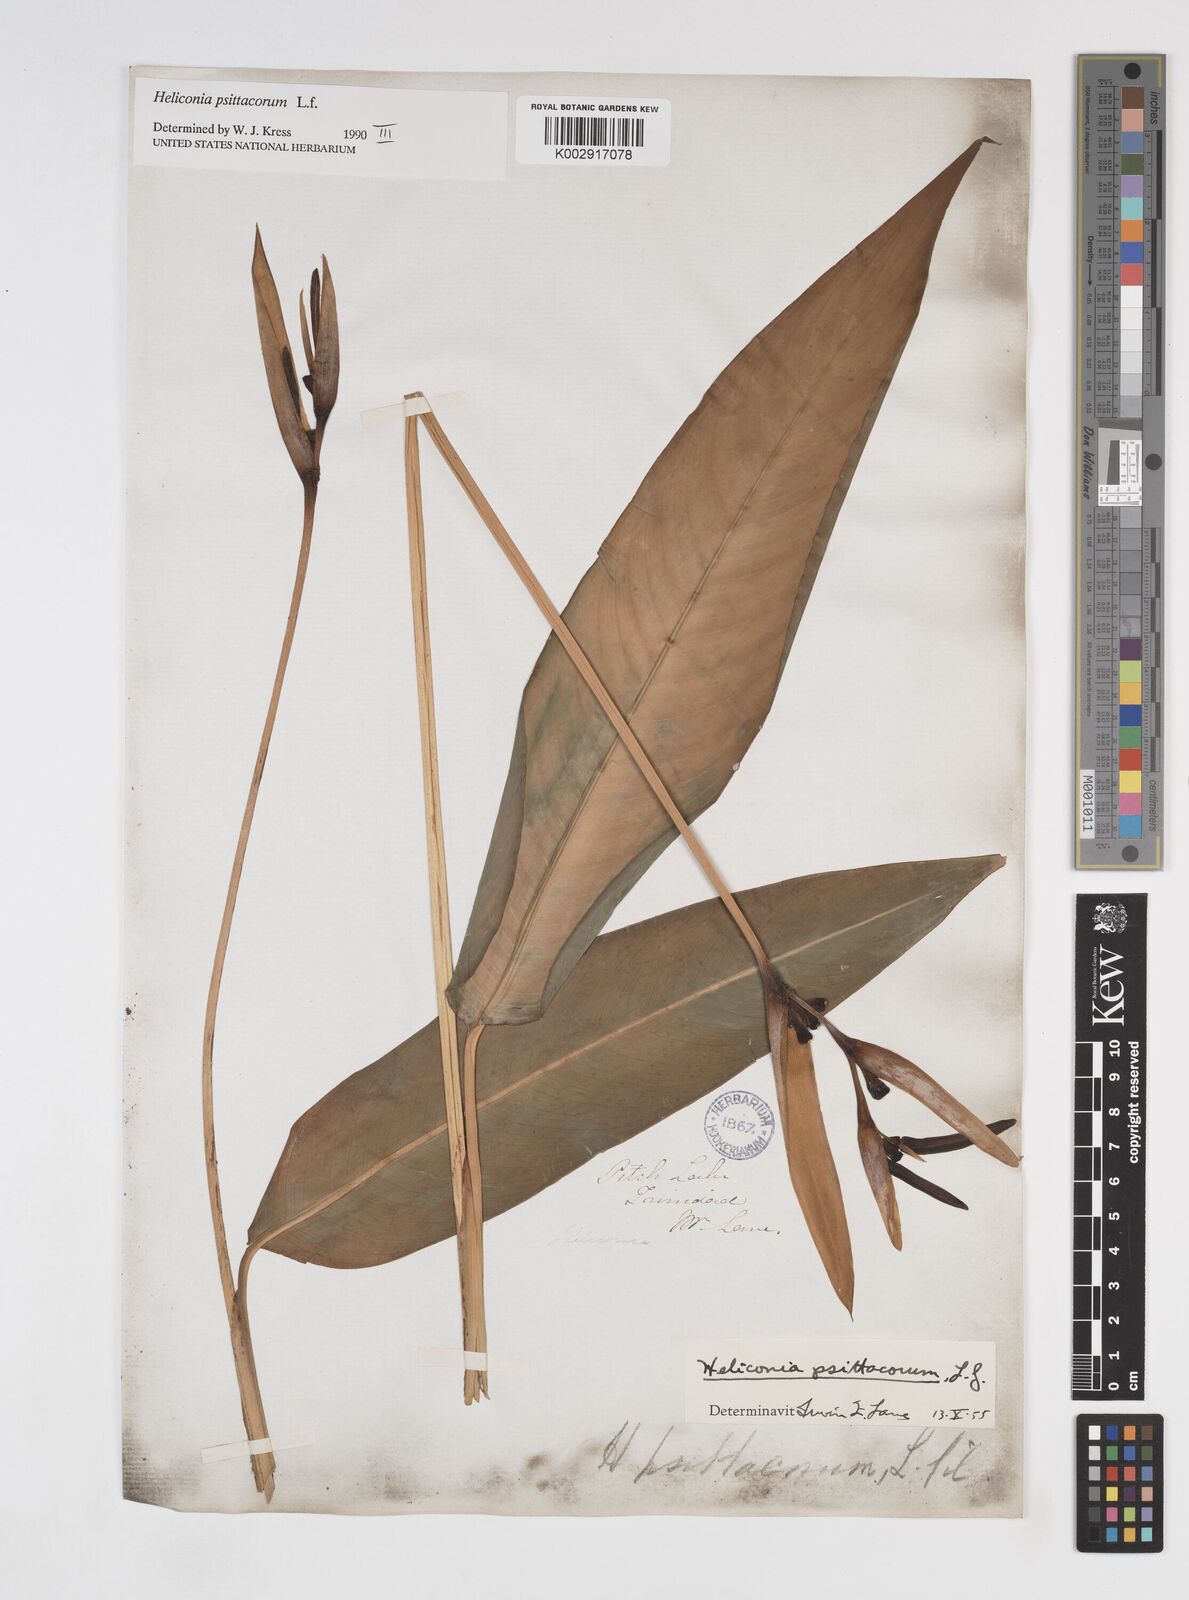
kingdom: Plantae
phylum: Tracheophyta
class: Liliopsida
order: Zingiberales
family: Heliconiaceae
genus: Heliconia
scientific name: Heliconia psittacorum
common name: Parrot's-flower
